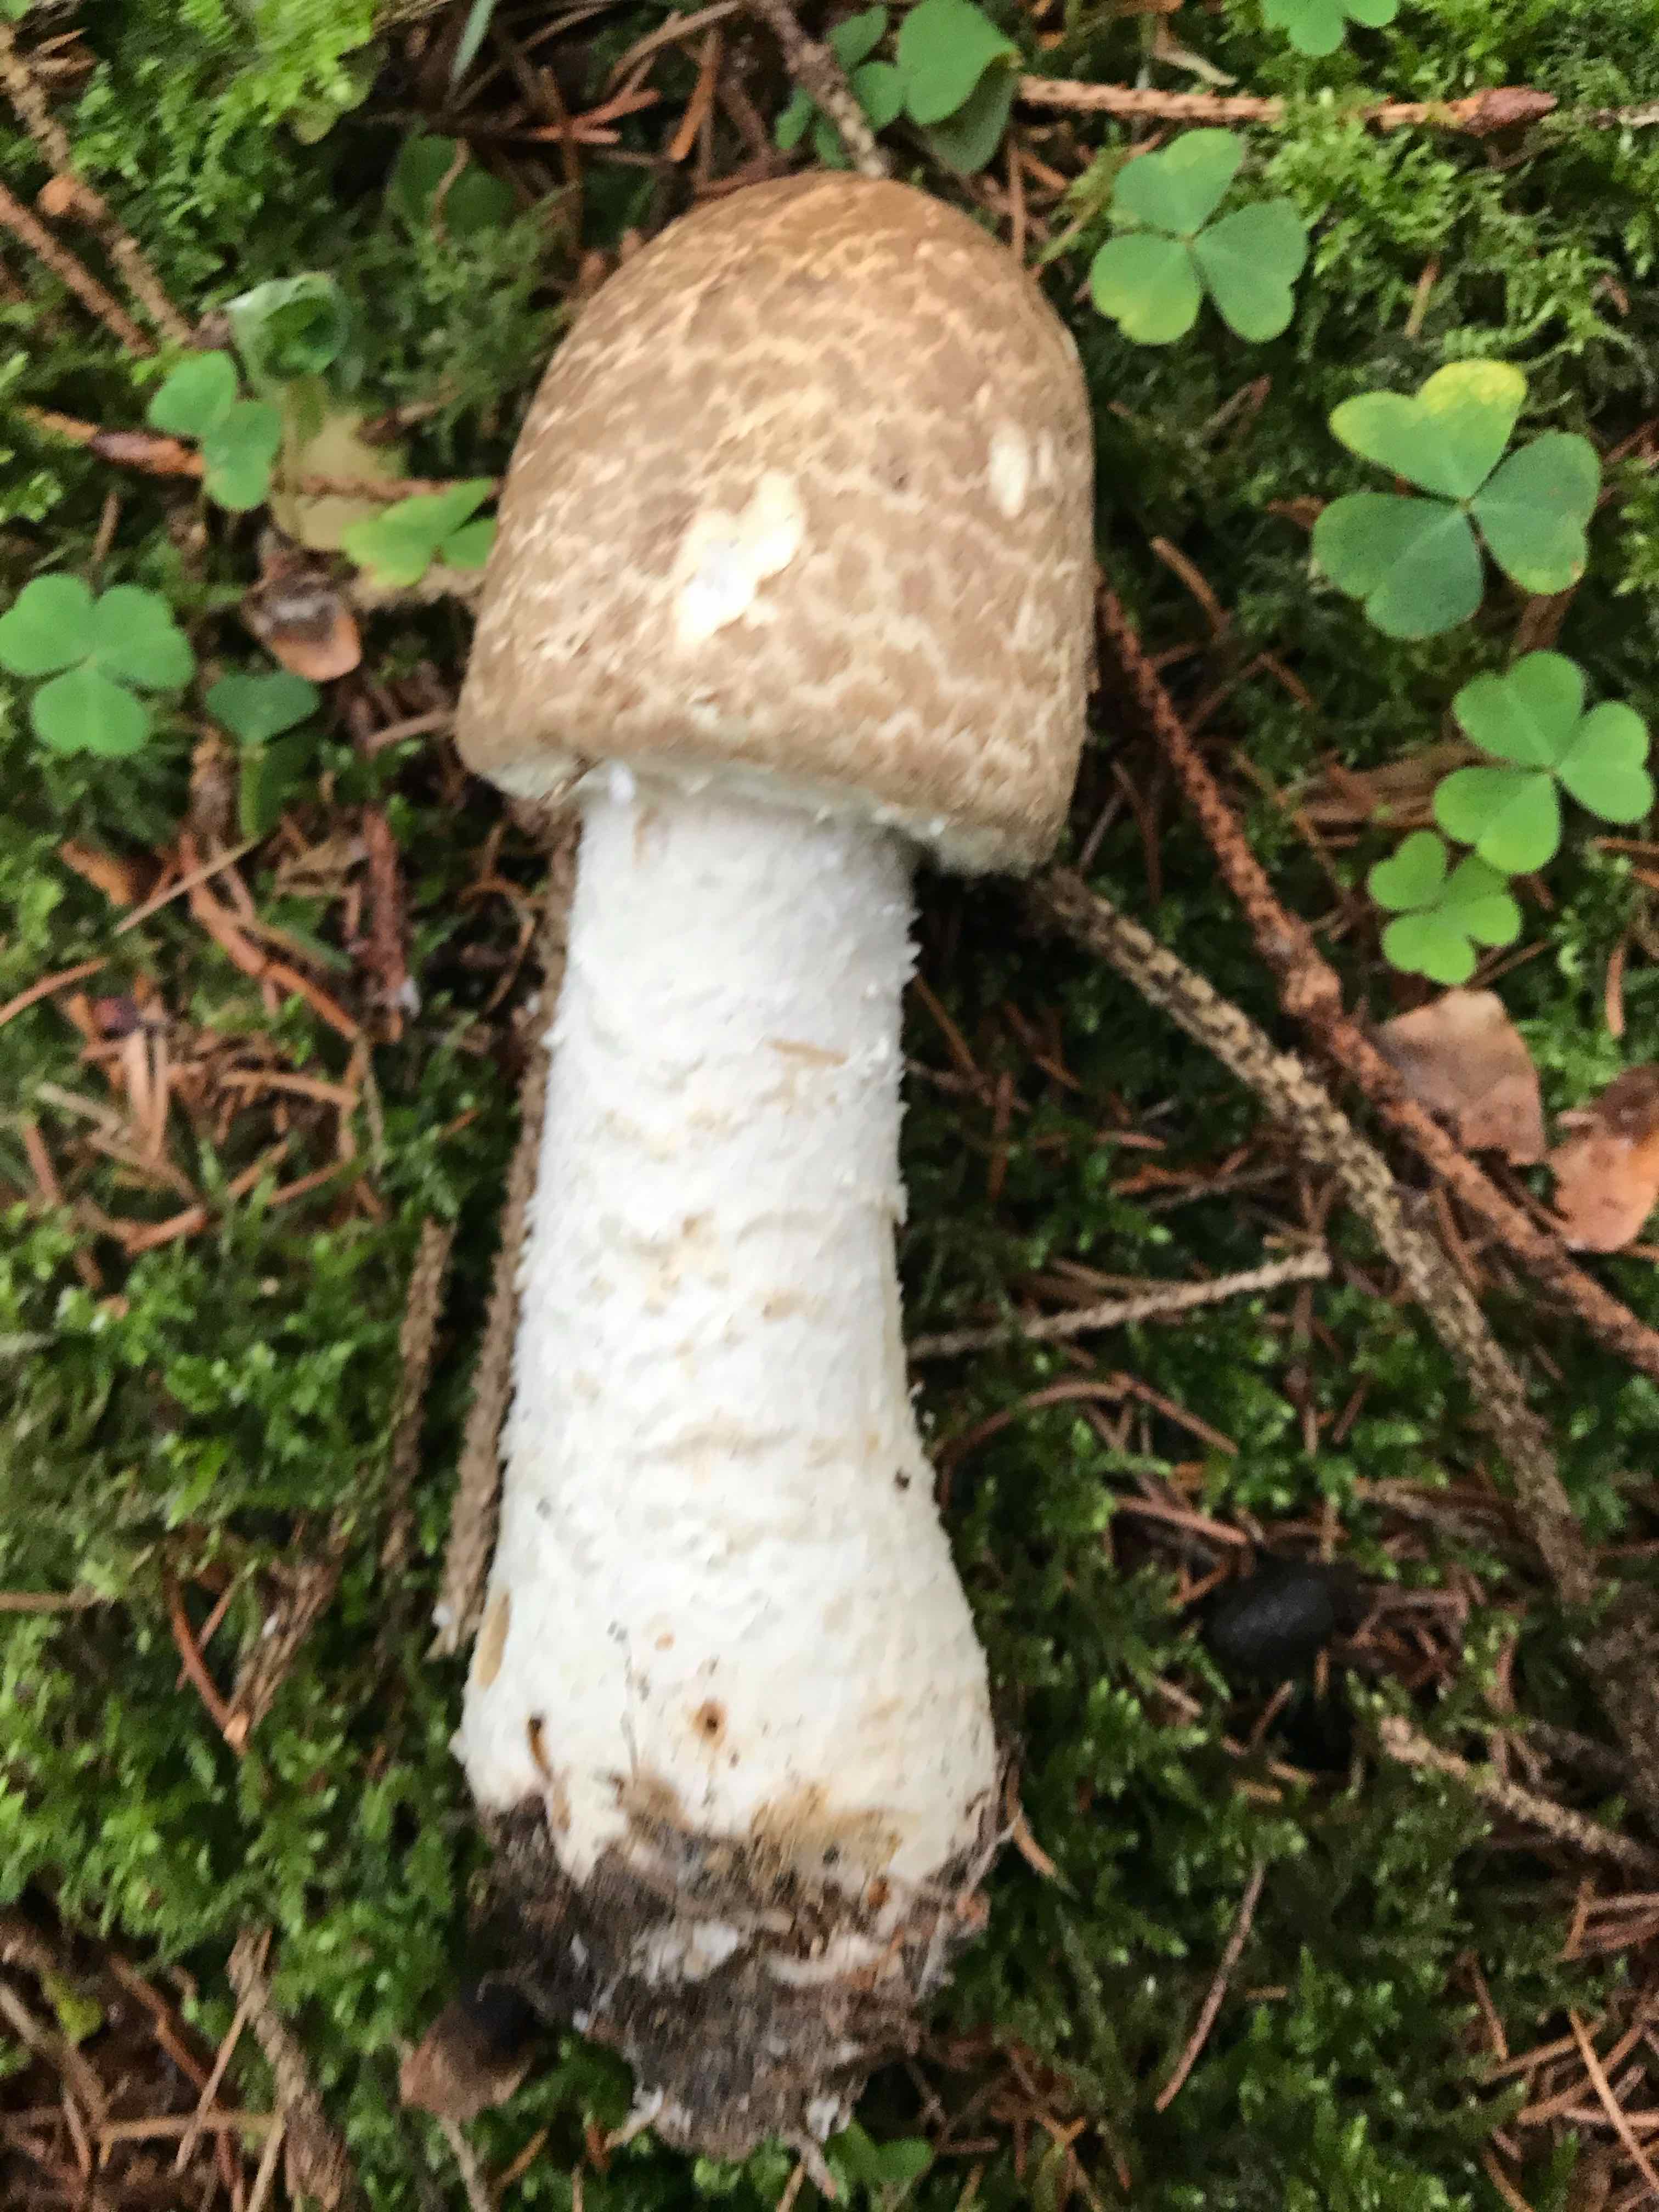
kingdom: Fungi
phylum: Basidiomycota
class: Agaricomycetes
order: Agaricales
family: Agaricaceae
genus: Agaricus
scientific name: Agaricus
